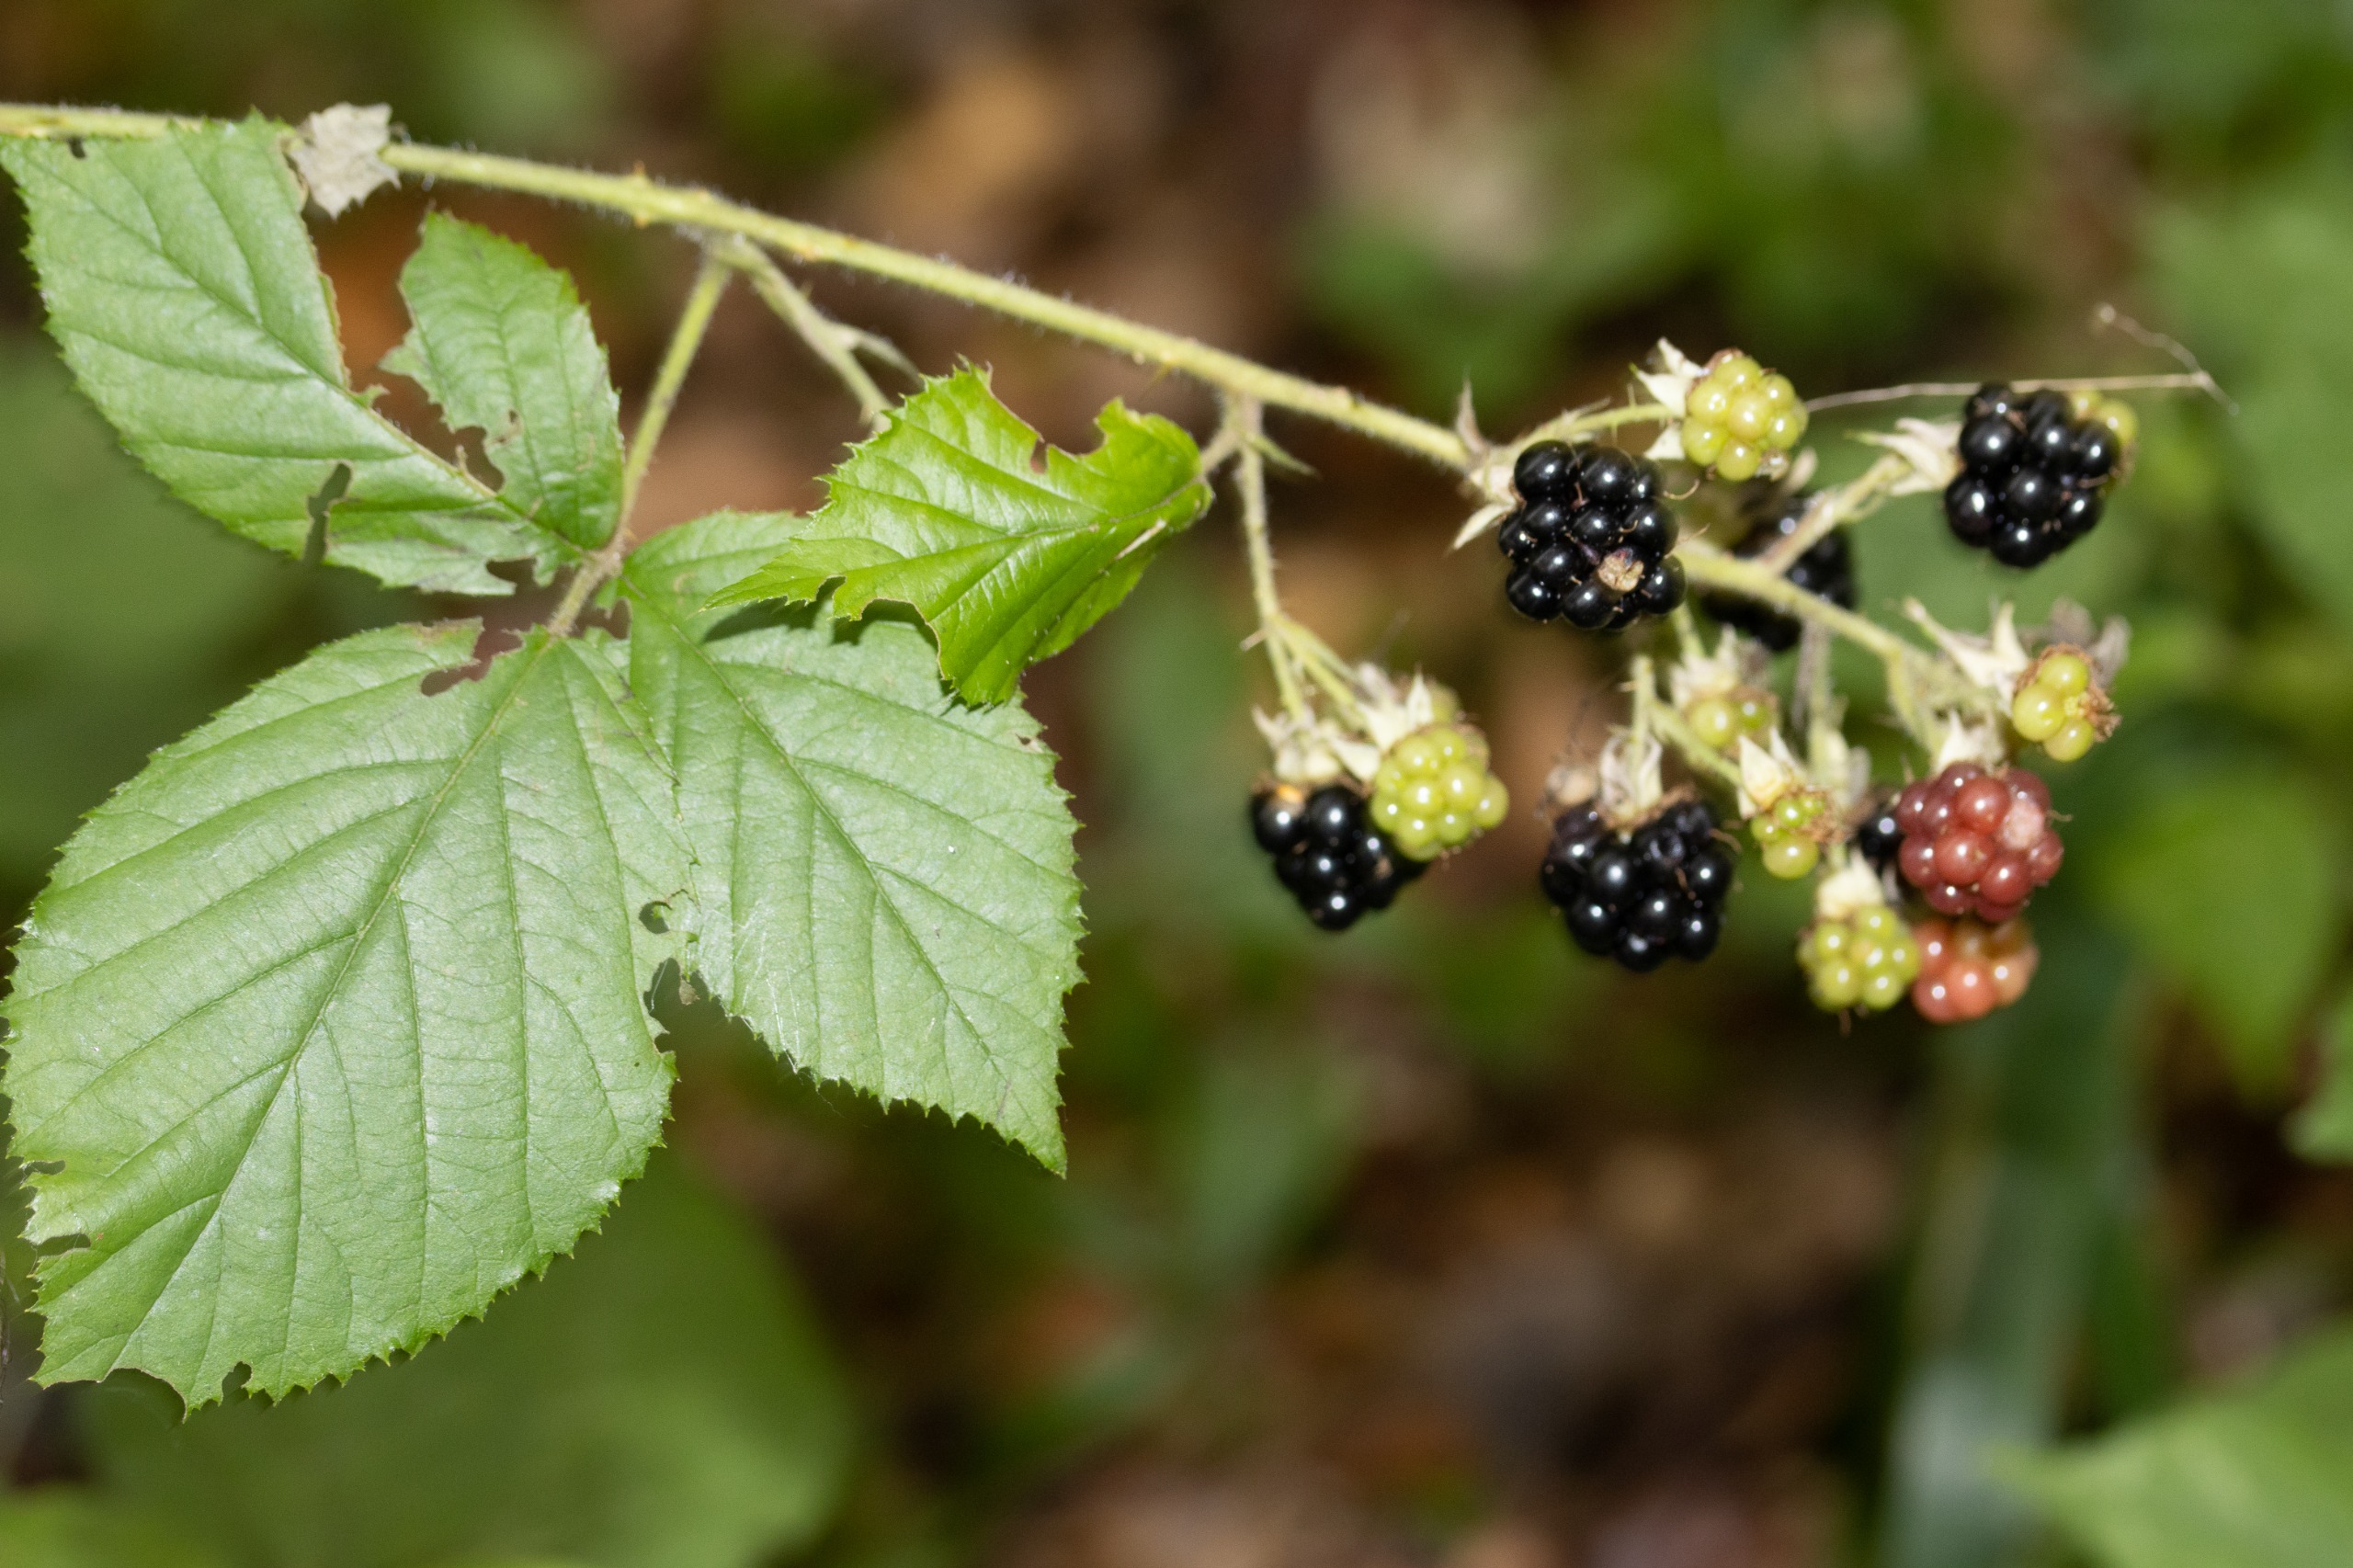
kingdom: Plantae
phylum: Tracheophyta
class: Magnoliopsida
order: Rosales
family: Rosaceae
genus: Rubus
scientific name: Rubus
